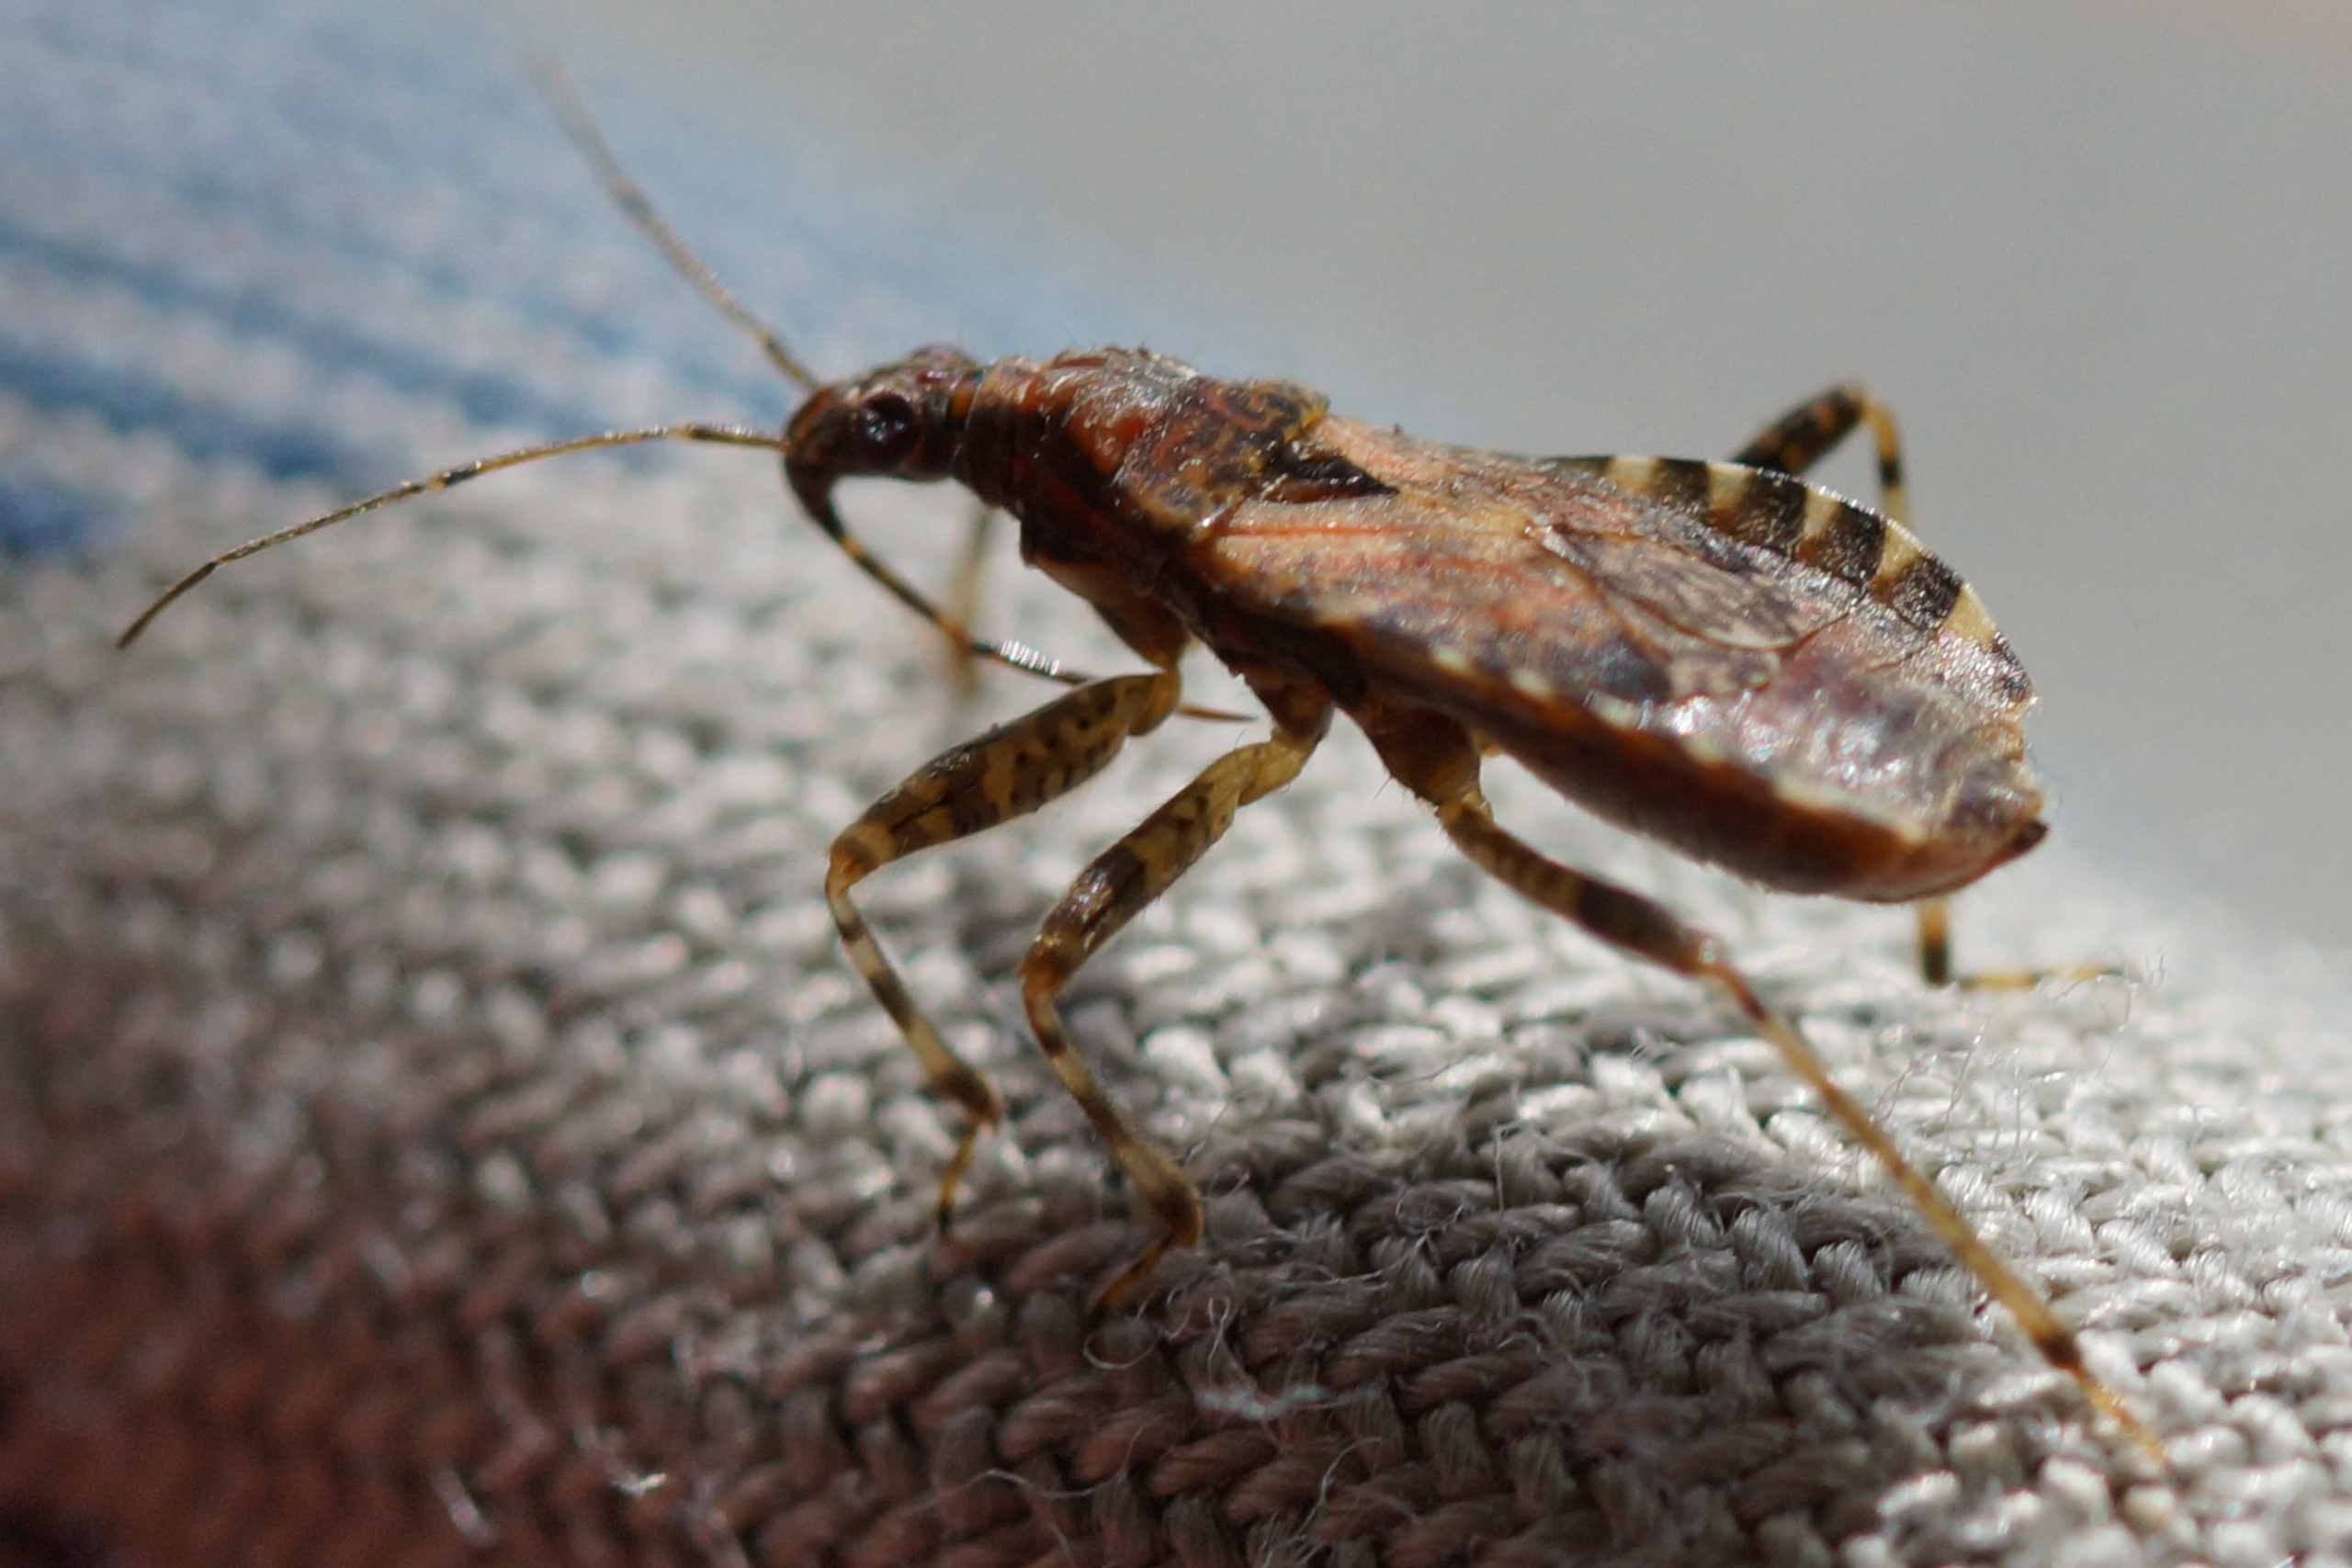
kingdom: Animalia
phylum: Arthropoda
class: Insecta
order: Hemiptera
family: Nabidae
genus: Himacerus
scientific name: Himacerus mirmicoides
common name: Myrenymfetæge
